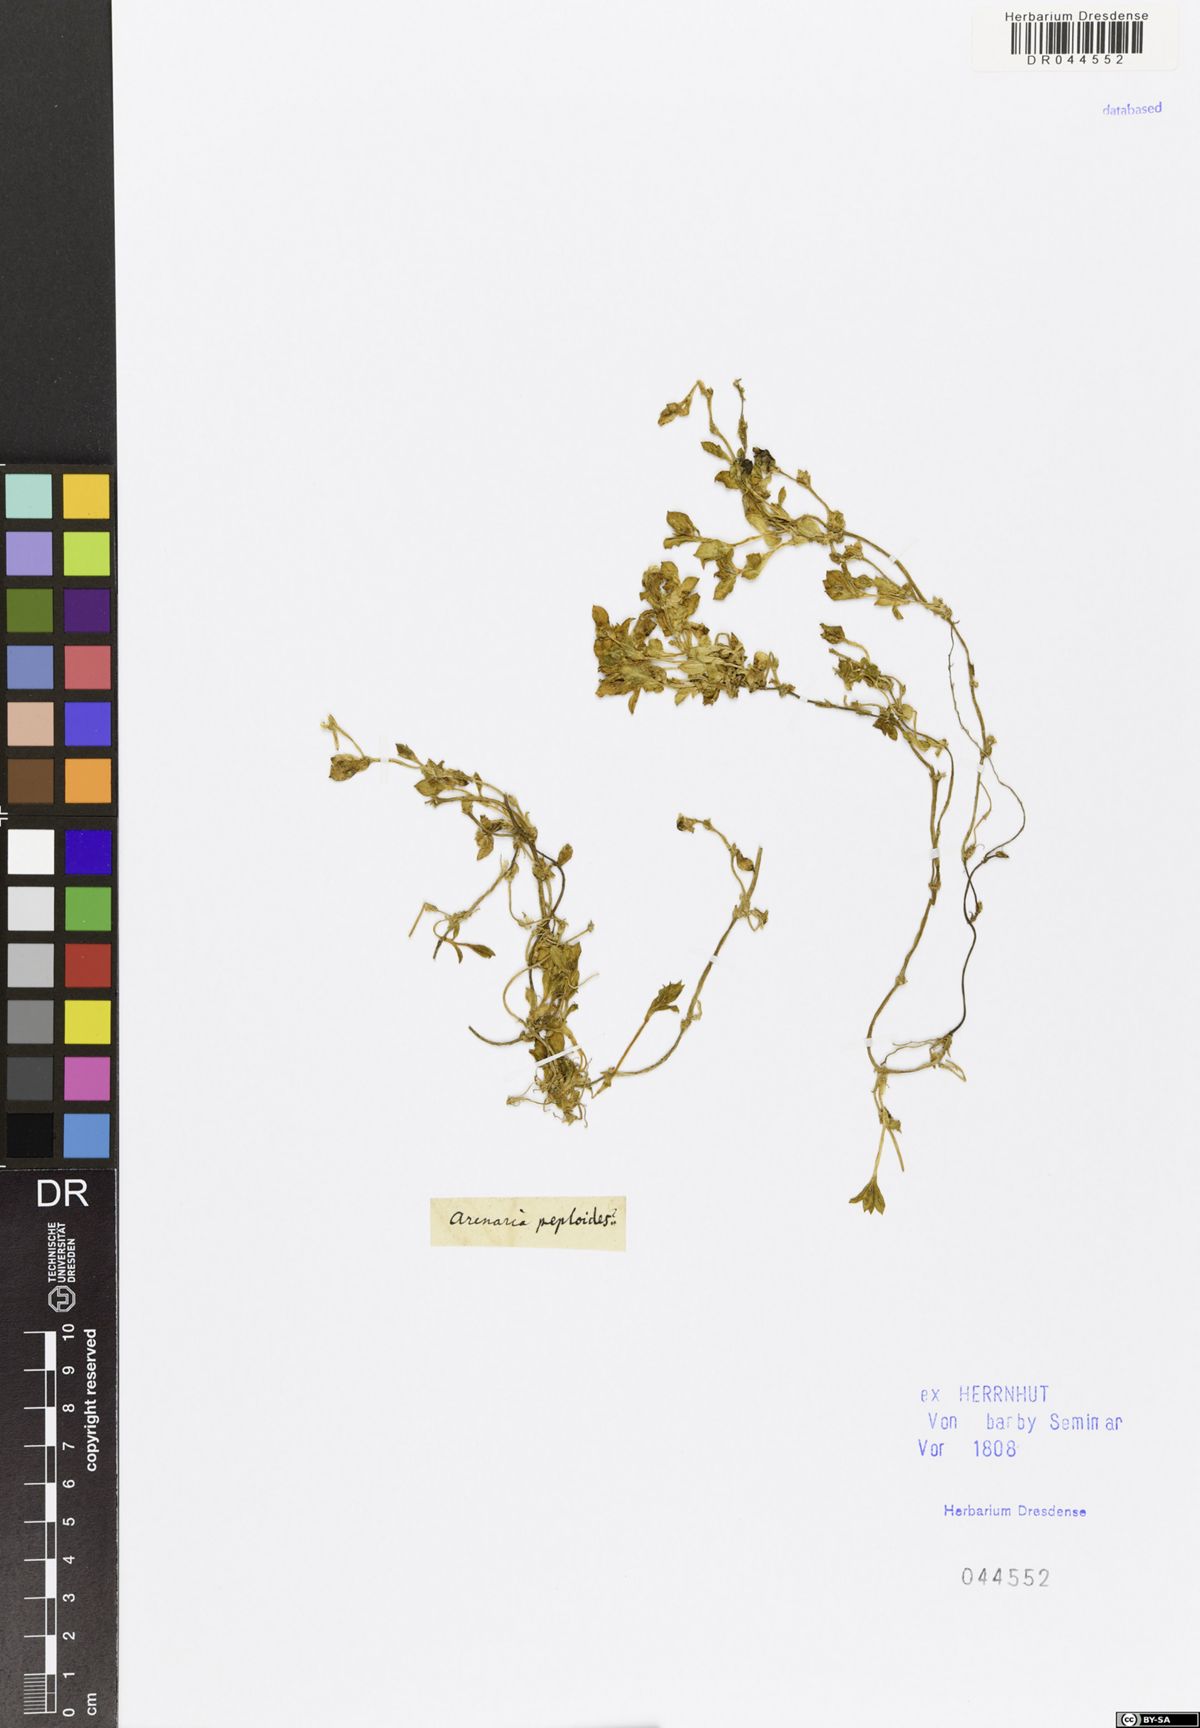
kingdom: Plantae
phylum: Tracheophyta
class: Magnoliopsida
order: Caryophyllales
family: Caryophyllaceae
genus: Honckenya
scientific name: Honckenya peploides
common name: Sea sandwort
